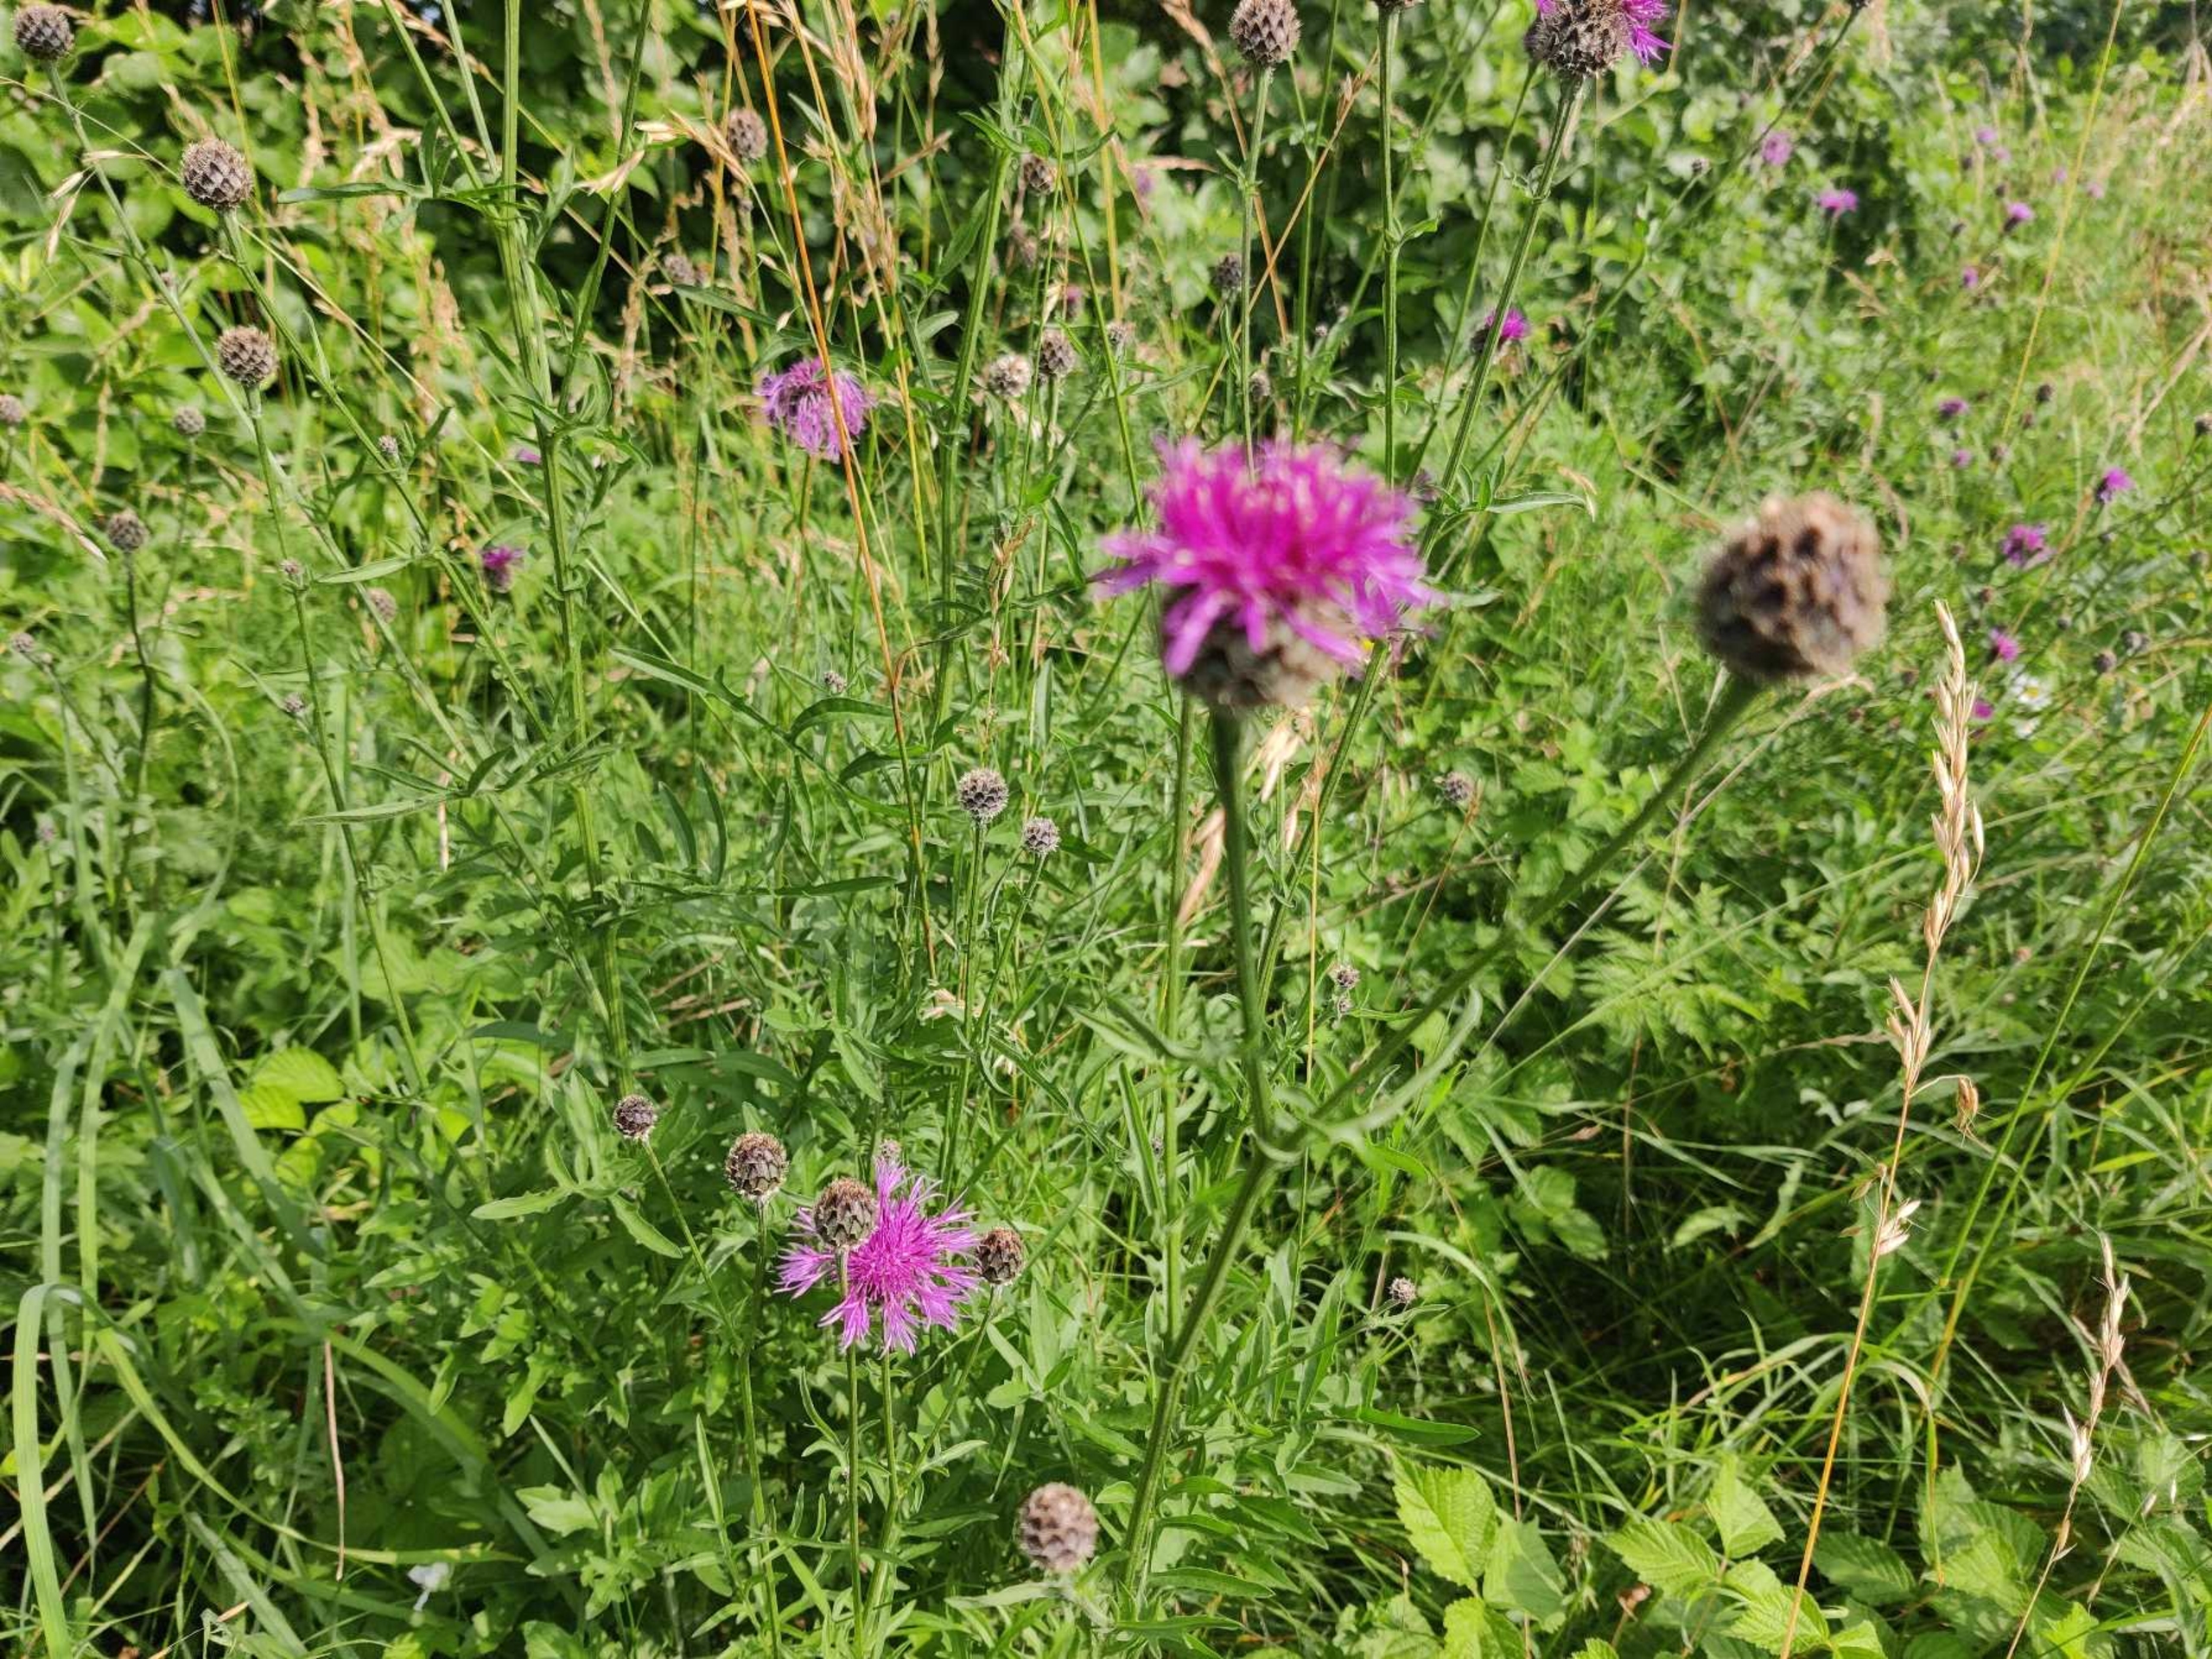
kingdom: Plantae
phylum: Tracheophyta
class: Magnoliopsida
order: Asterales
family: Asteraceae
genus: Centaurea
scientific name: Centaurea scabiosa
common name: Stor knopurt
